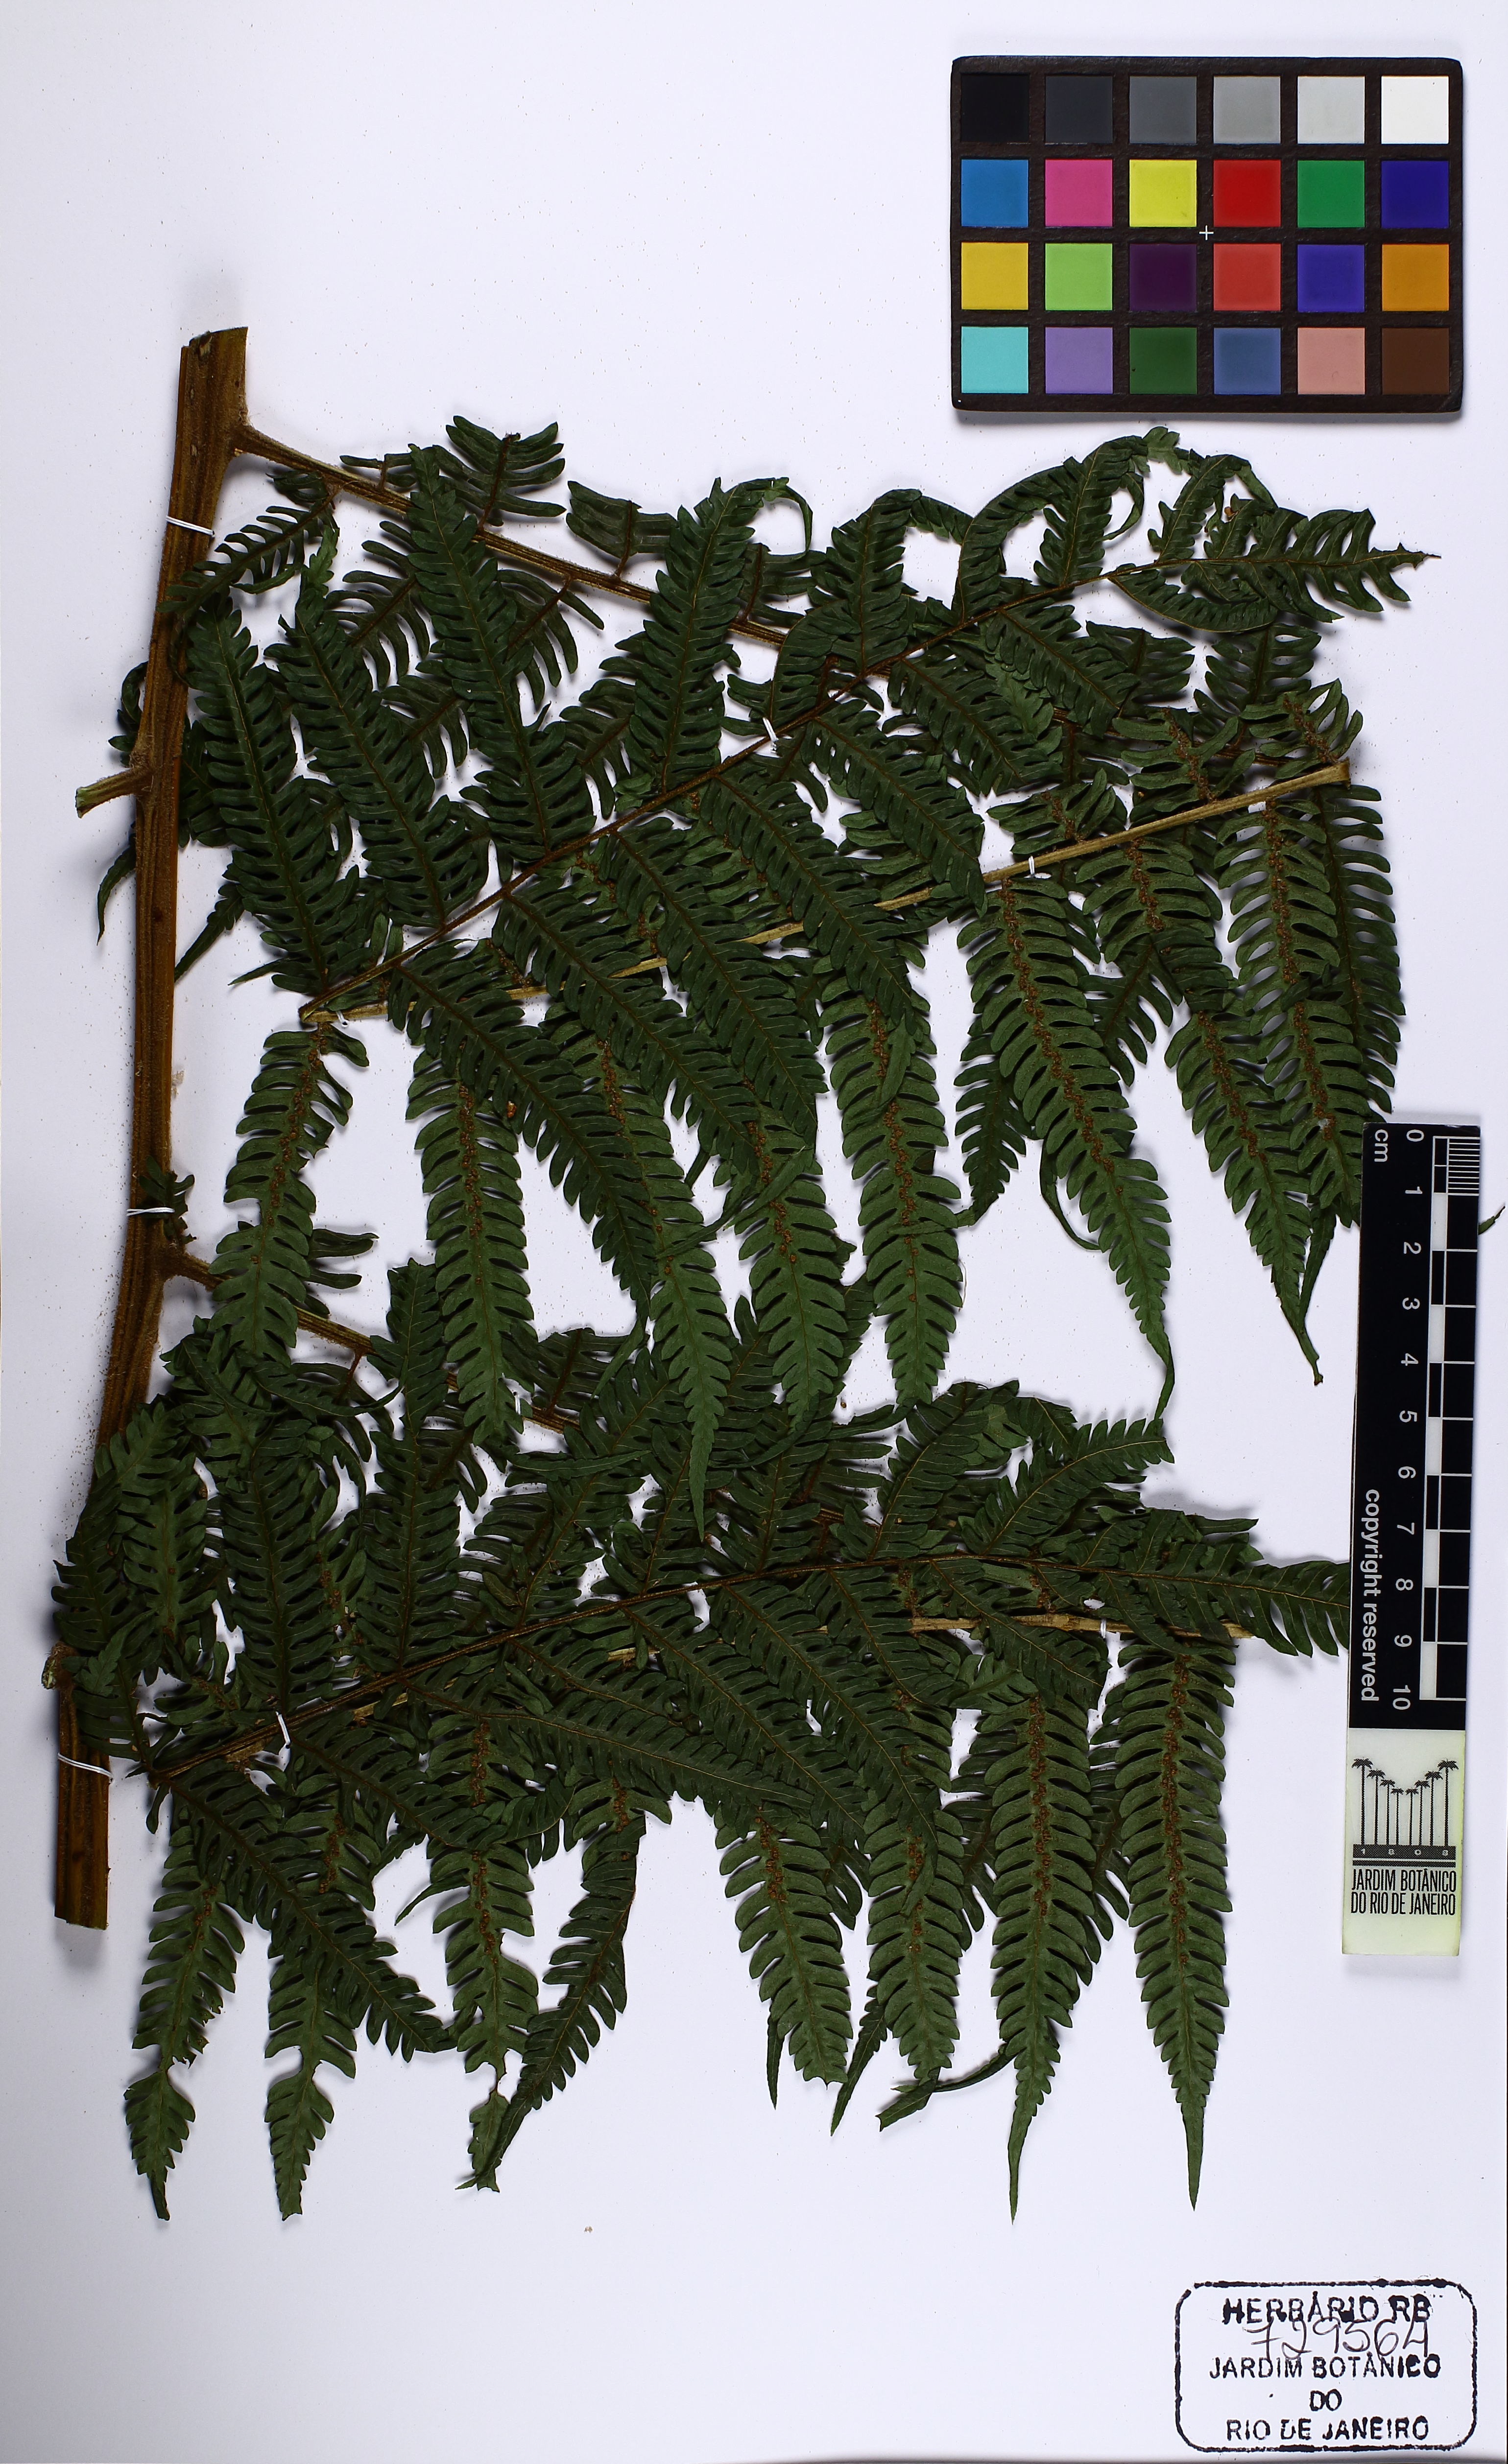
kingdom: Plantae
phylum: Tracheophyta
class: Polypodiopsida
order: Cyatheales
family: Cyatheaceae
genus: Alsophila
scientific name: Alsophila sternbergii
